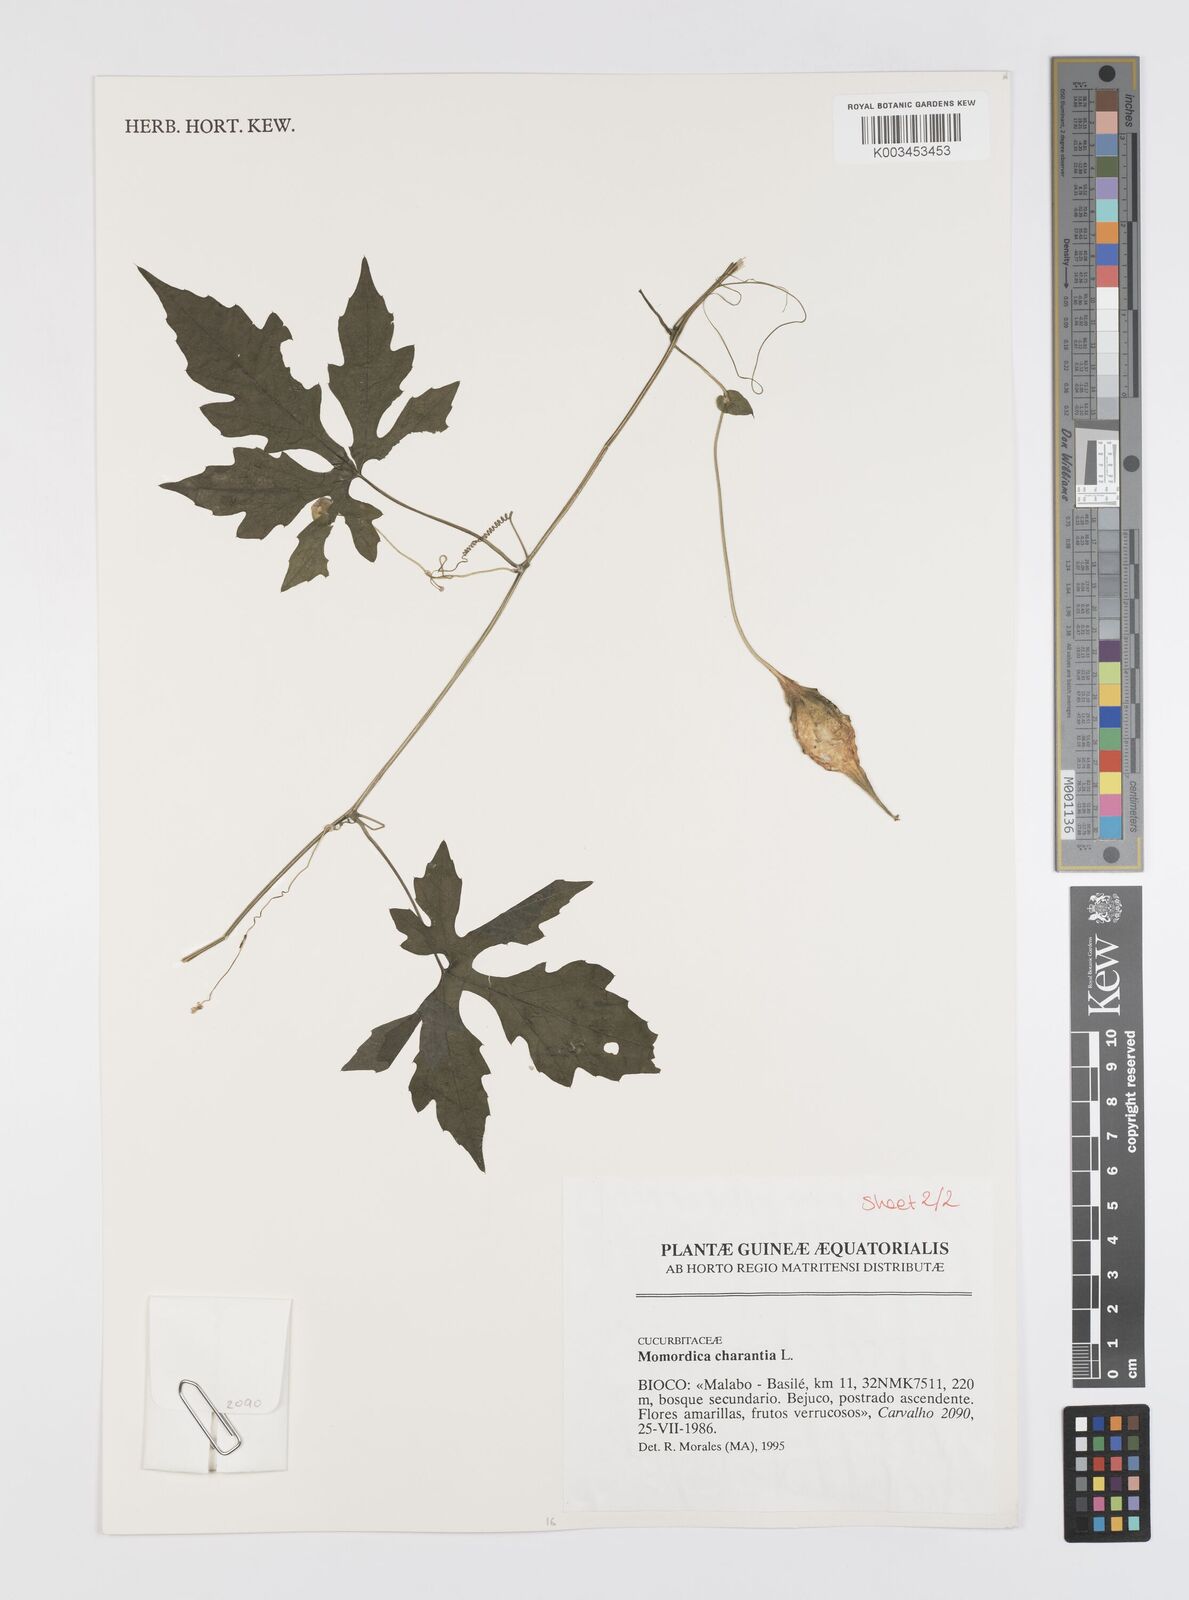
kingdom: Plantae
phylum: Tracheophyta
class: Magnoliopsida
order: Cucurbitales
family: Cucurbitaceae
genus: Momordica
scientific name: Momordica charantia
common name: Balsampear
